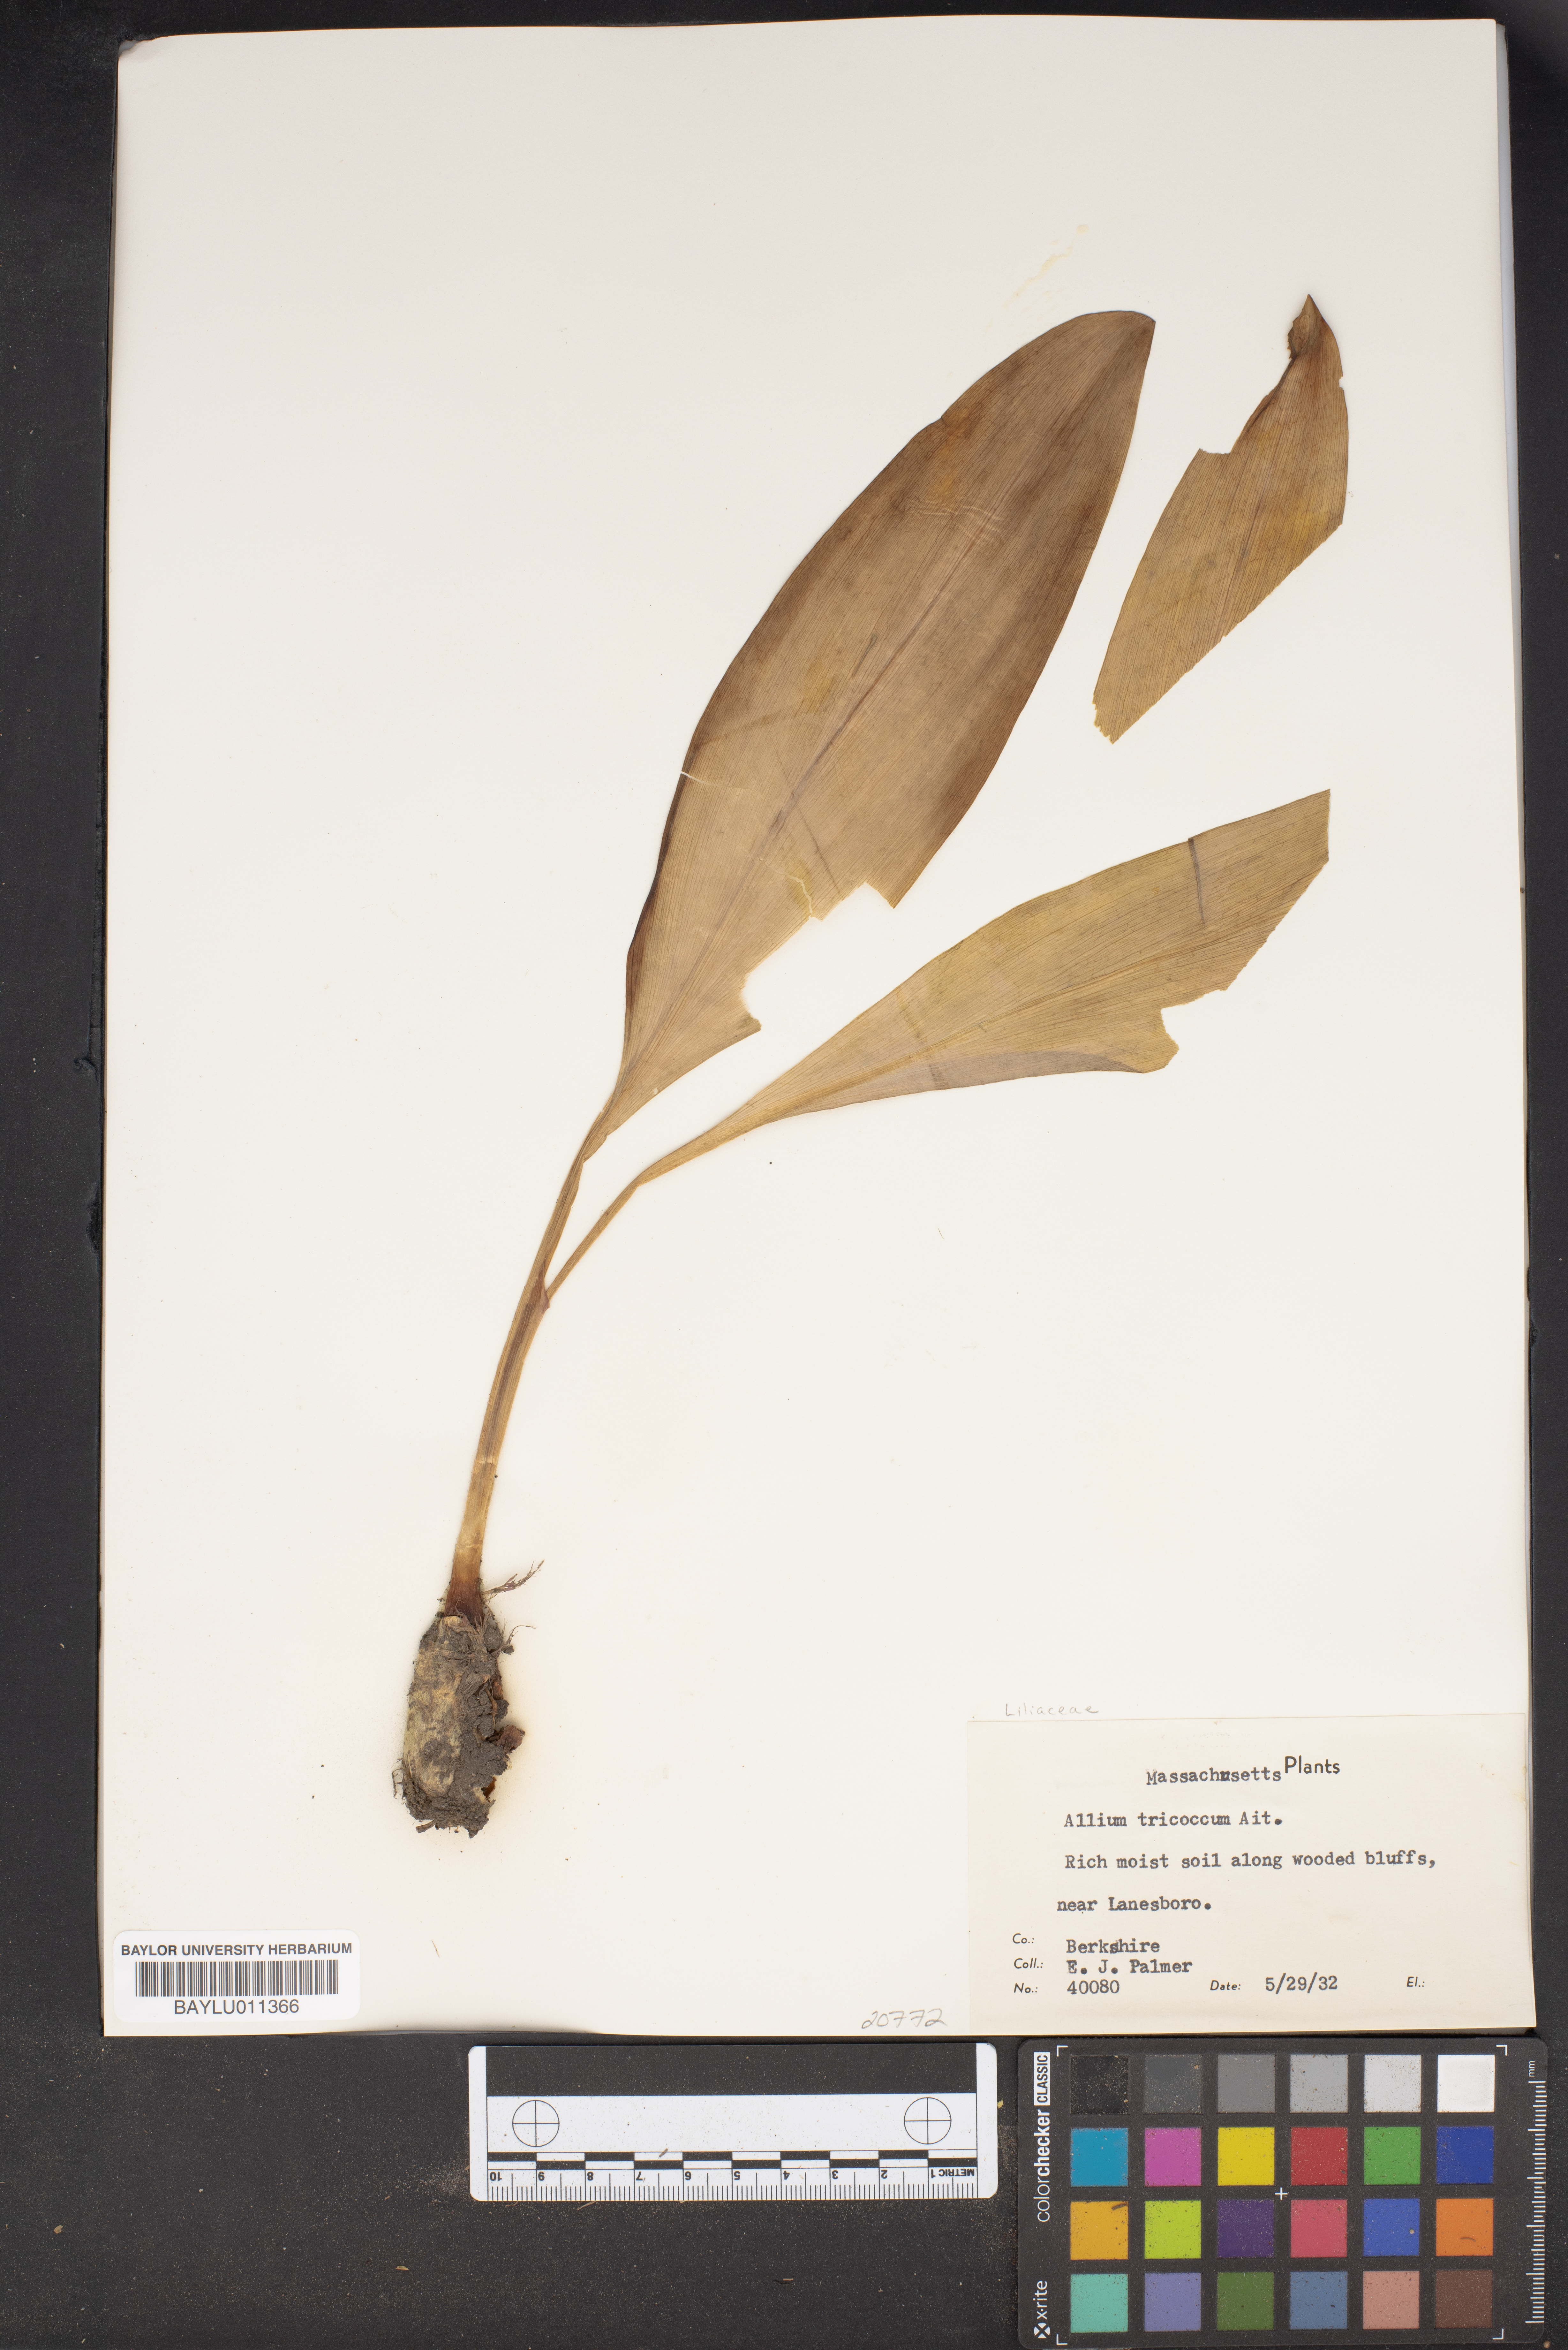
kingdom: Plantae
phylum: Tracheophyta
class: Liliopsida
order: Asparagales
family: Amaryllidaceae
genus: Allium
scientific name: Allium tricoccum
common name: Ramp
